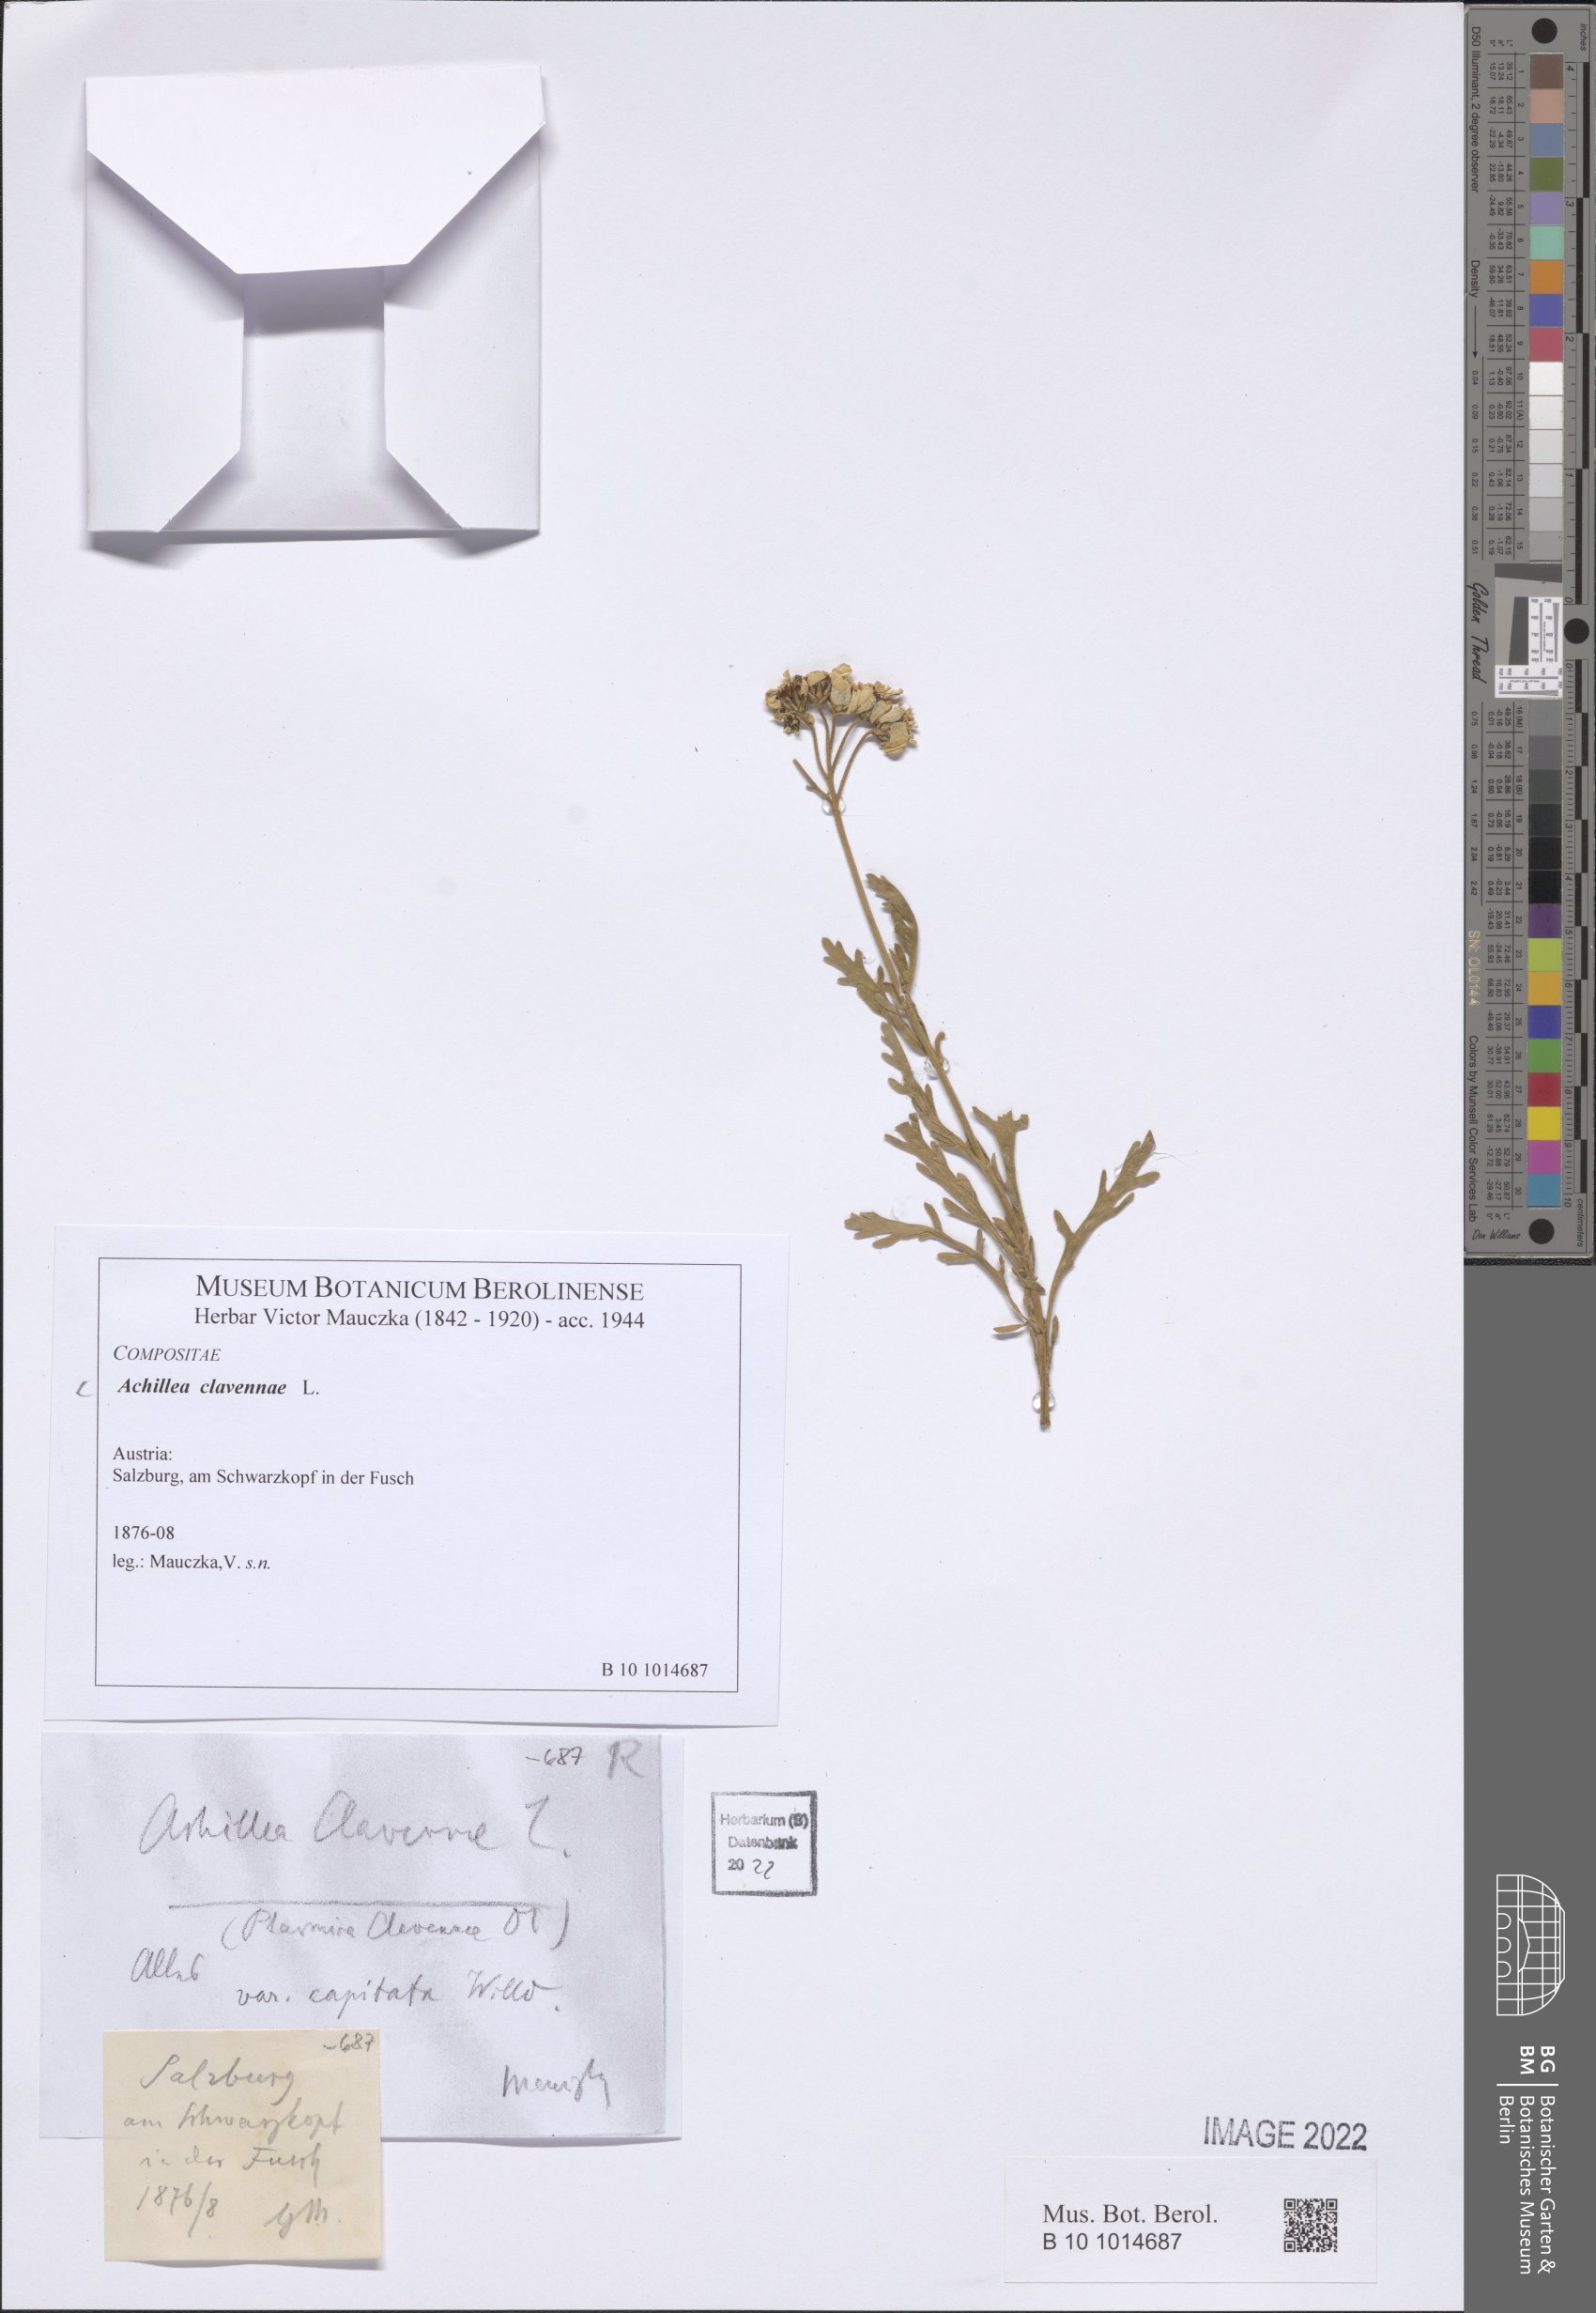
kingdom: Plantae
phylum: Tracheophyta
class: Magnoliopsida
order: Asterales
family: Asteraceae
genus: Achillea
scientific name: Achillea clavennae
